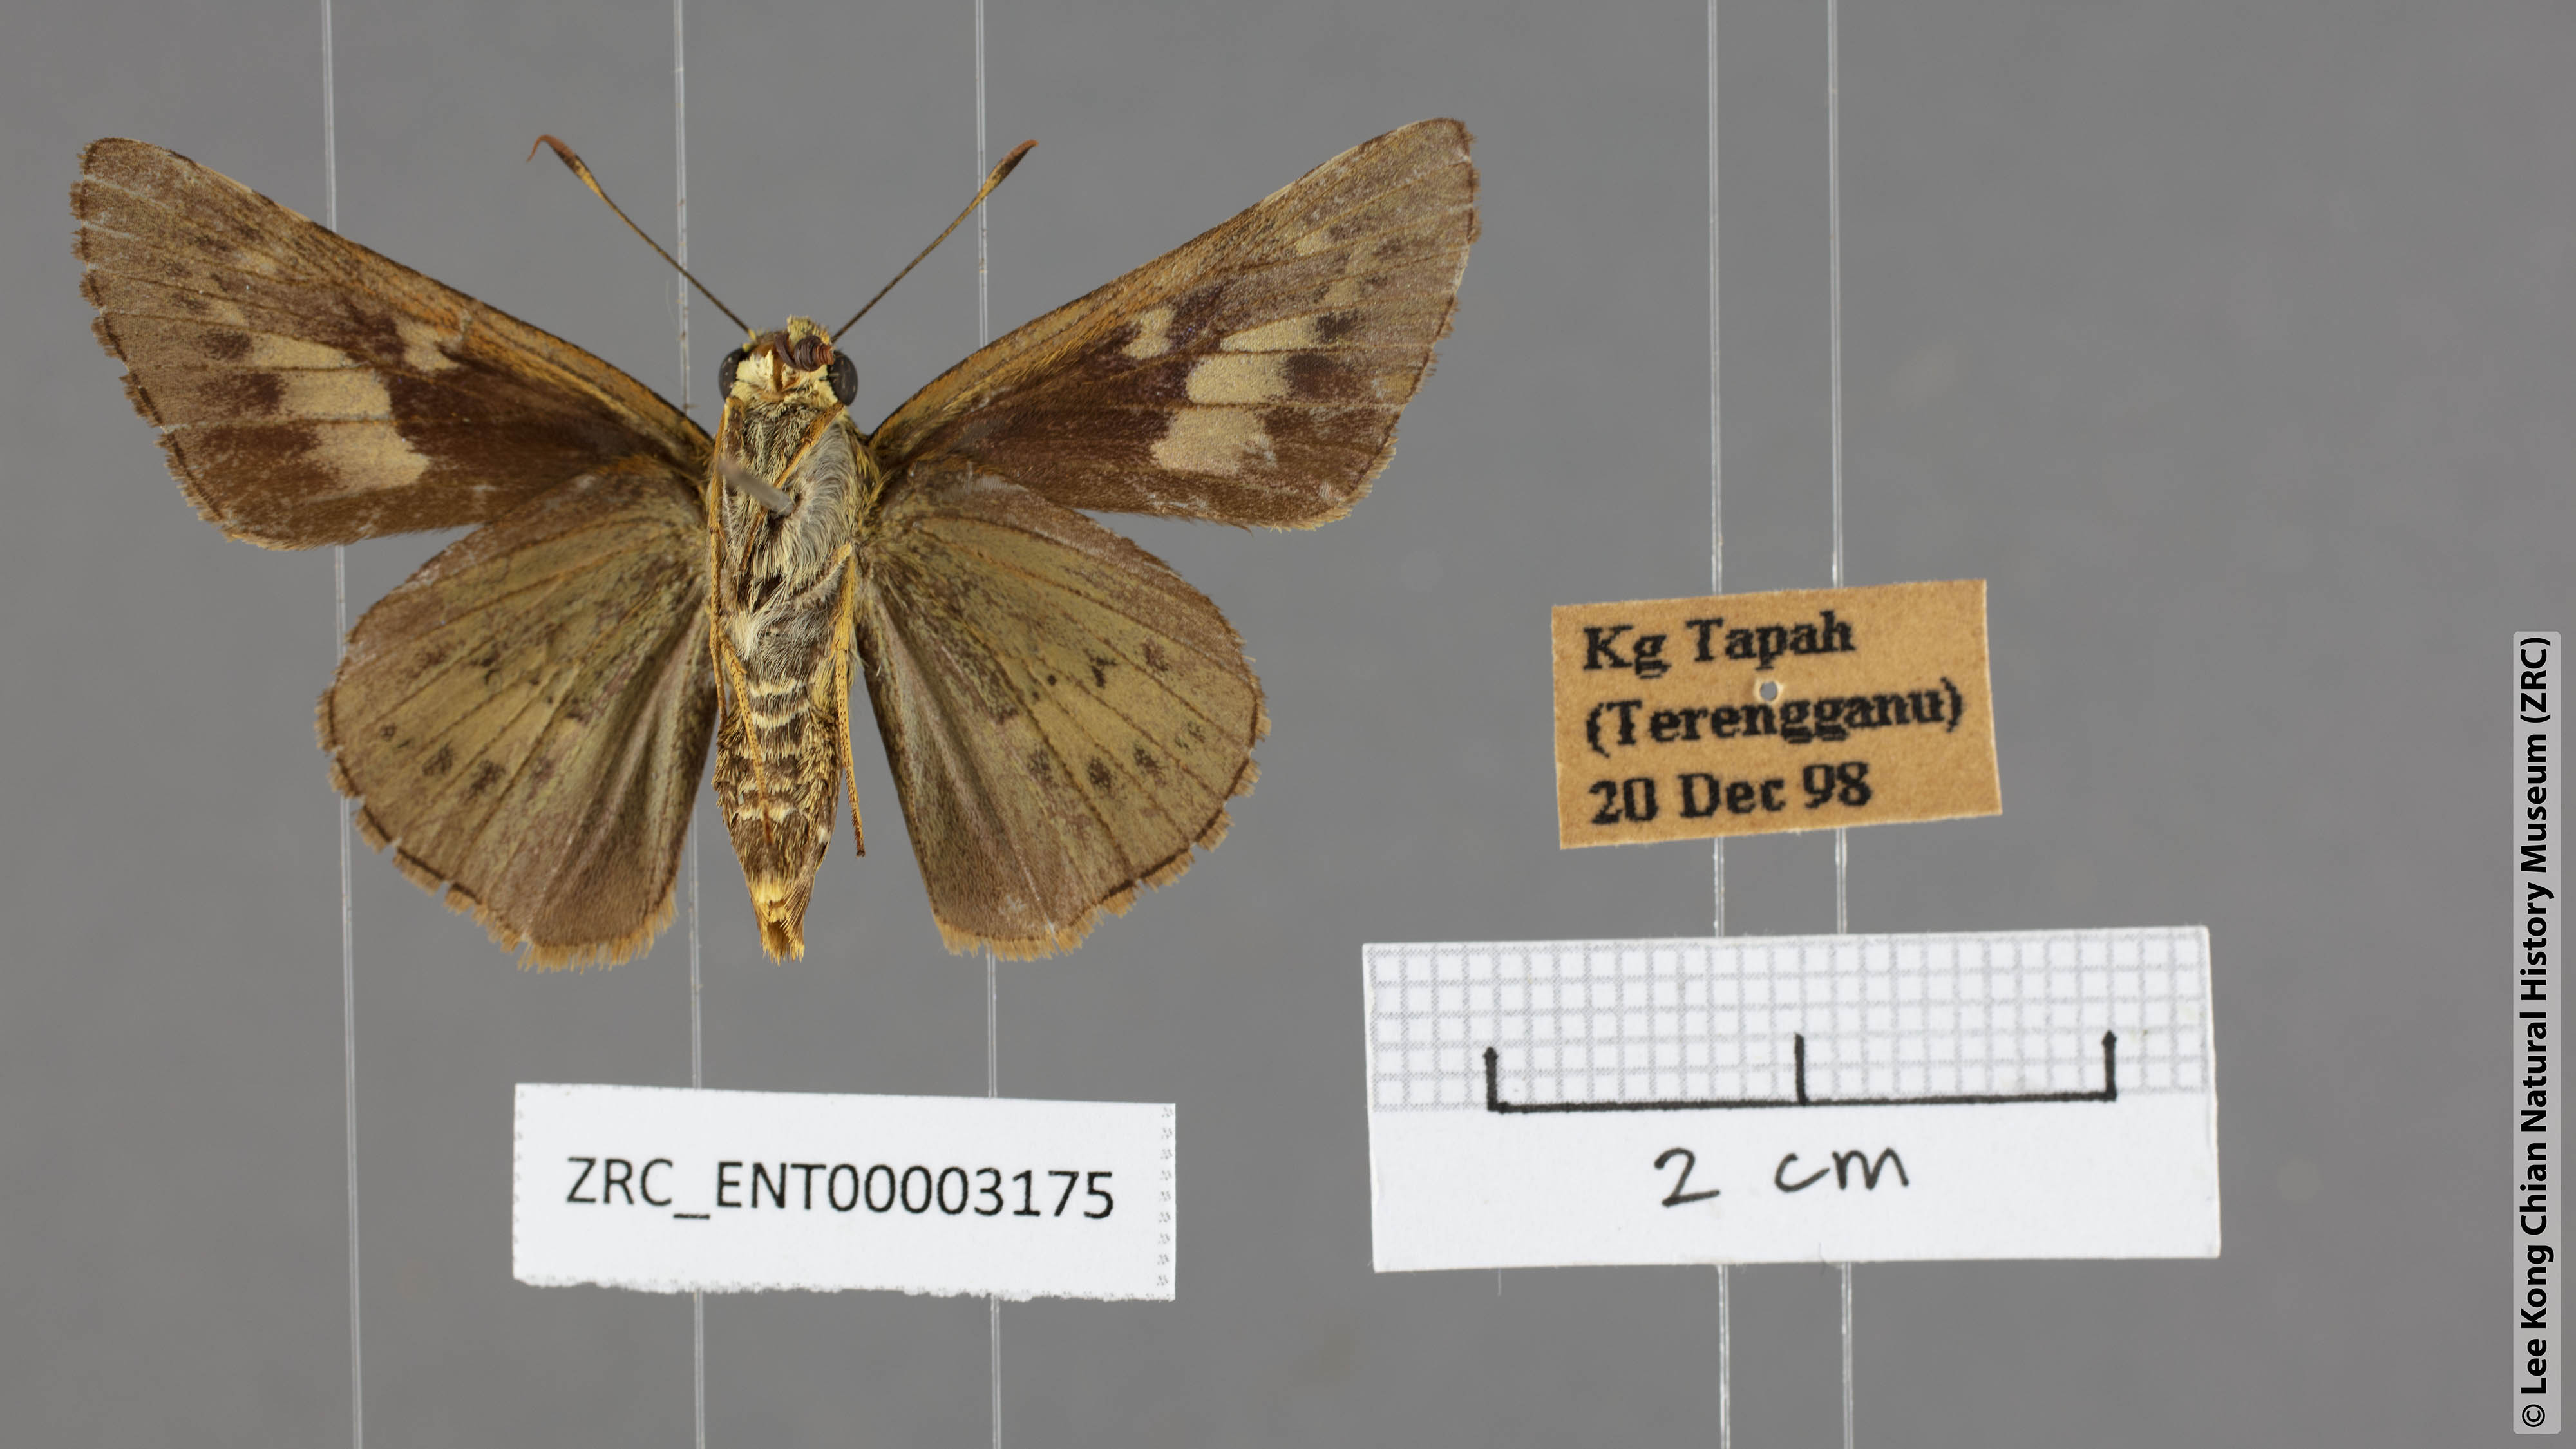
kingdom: Animalia
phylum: Arthropoda
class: Insecta
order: Lepidoptera
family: Hesperiidae
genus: Cephrenes
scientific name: Cephrenes
